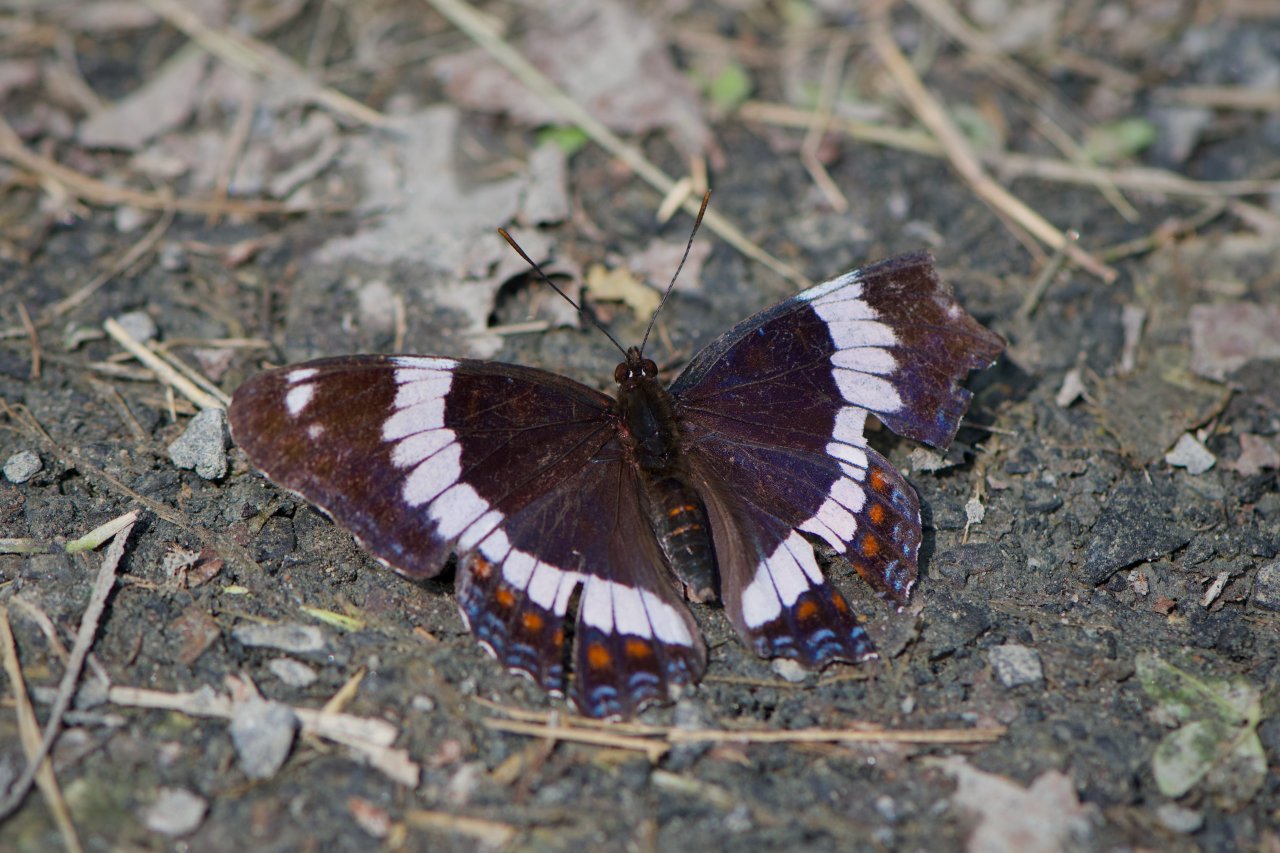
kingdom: Animalia
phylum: Arthropoda
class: Insecta
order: Lepidoptera
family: Nymphalidae
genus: Limenitis
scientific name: Limenitis arthemis
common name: Red-spotted Admiral
